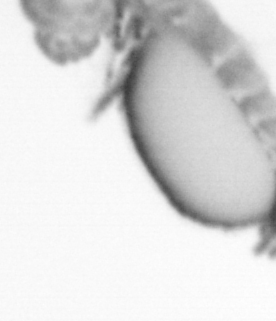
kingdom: Animalia
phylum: Annelida
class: Polychaeta
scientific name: Polychaeta
